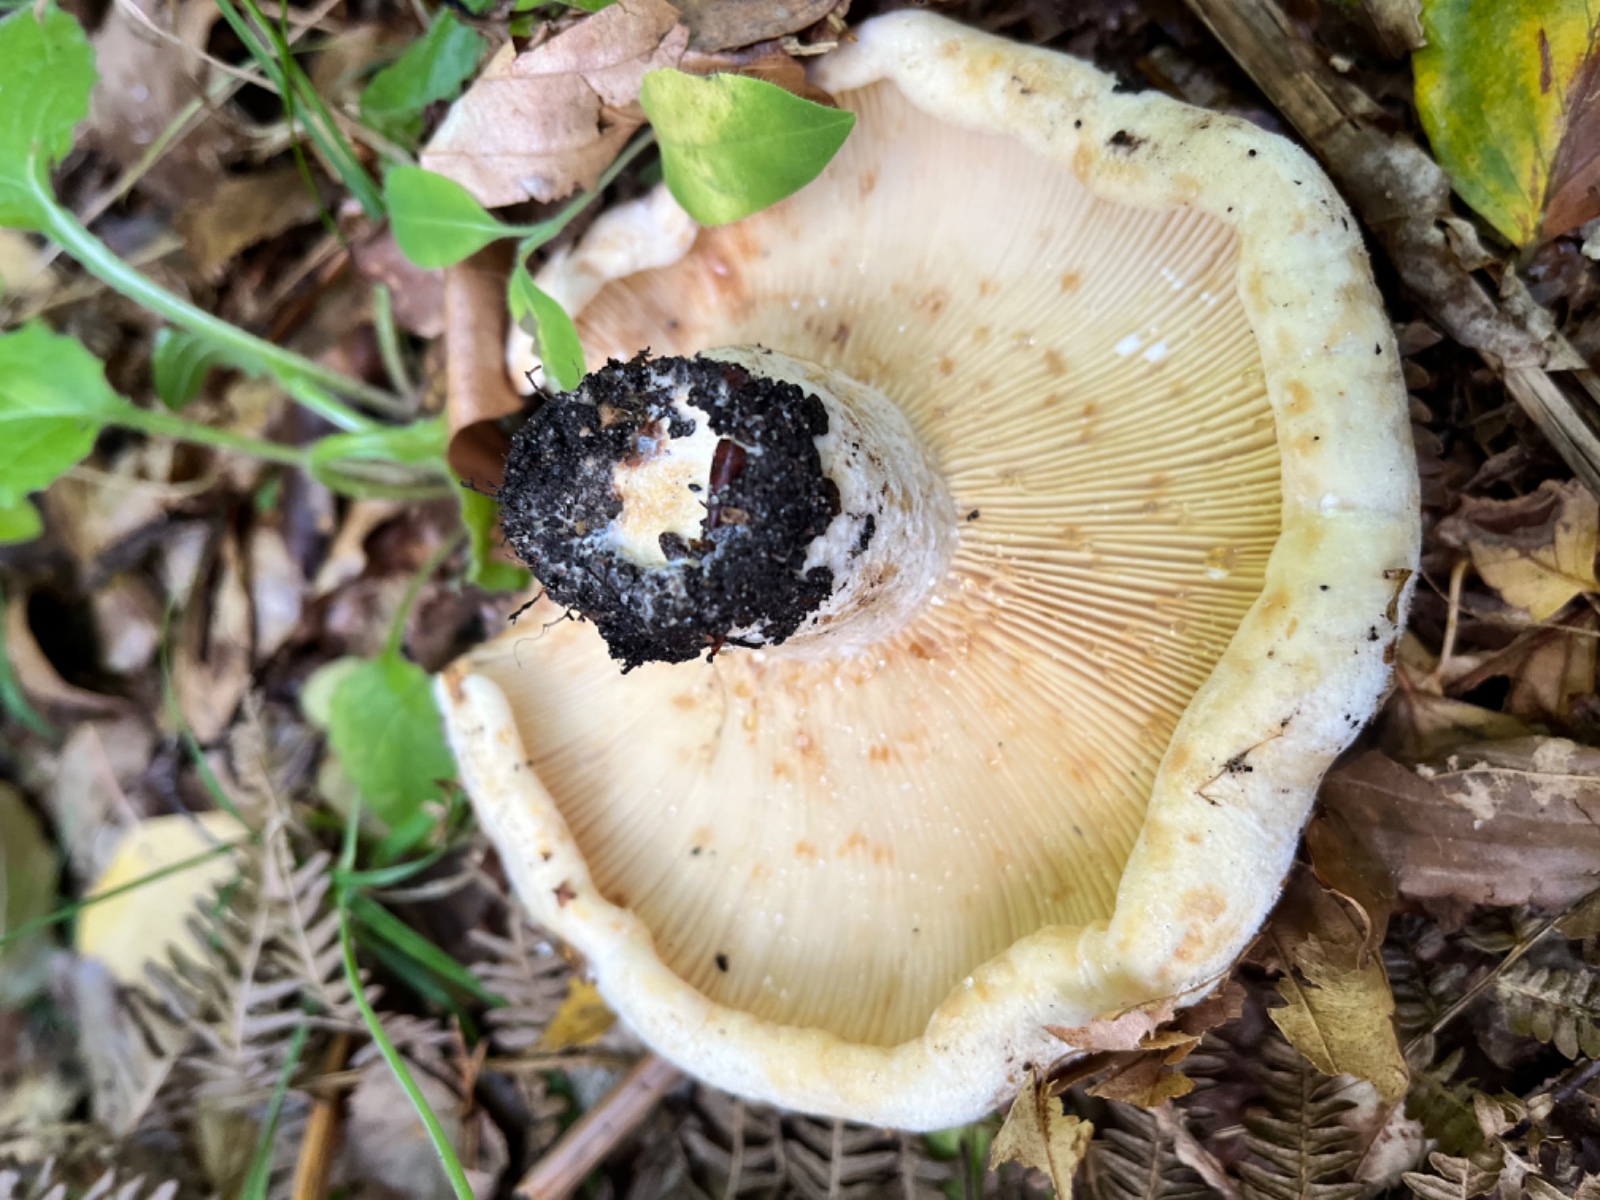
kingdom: Fungi
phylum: Basidiomycota
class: Agaricomycetes
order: Russulales
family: Russulaceae
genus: Lactifluus
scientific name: Lactifluus vellereus
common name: hvidfiltet mælkehat
